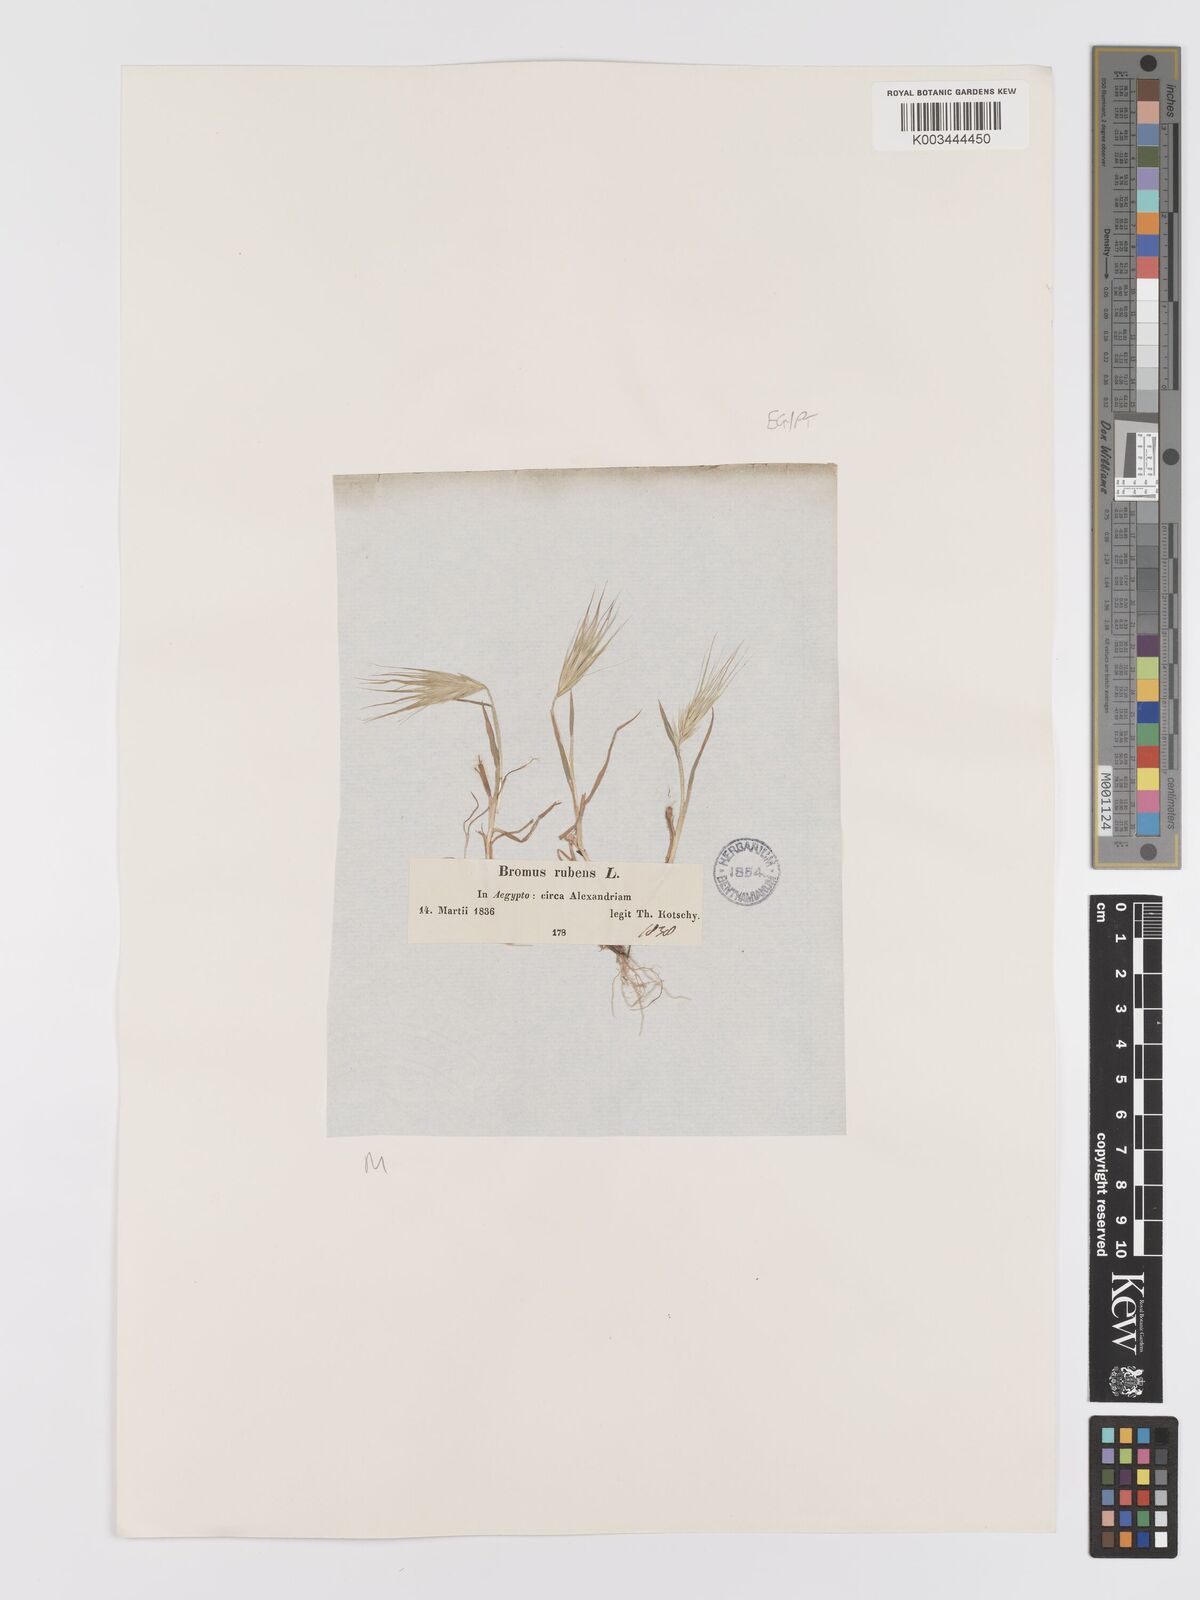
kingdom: Plantae
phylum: Tracheophyta
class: Liliopsida
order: Poales
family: Poaceae
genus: Bromus
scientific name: Bromus rubens
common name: Red brome
